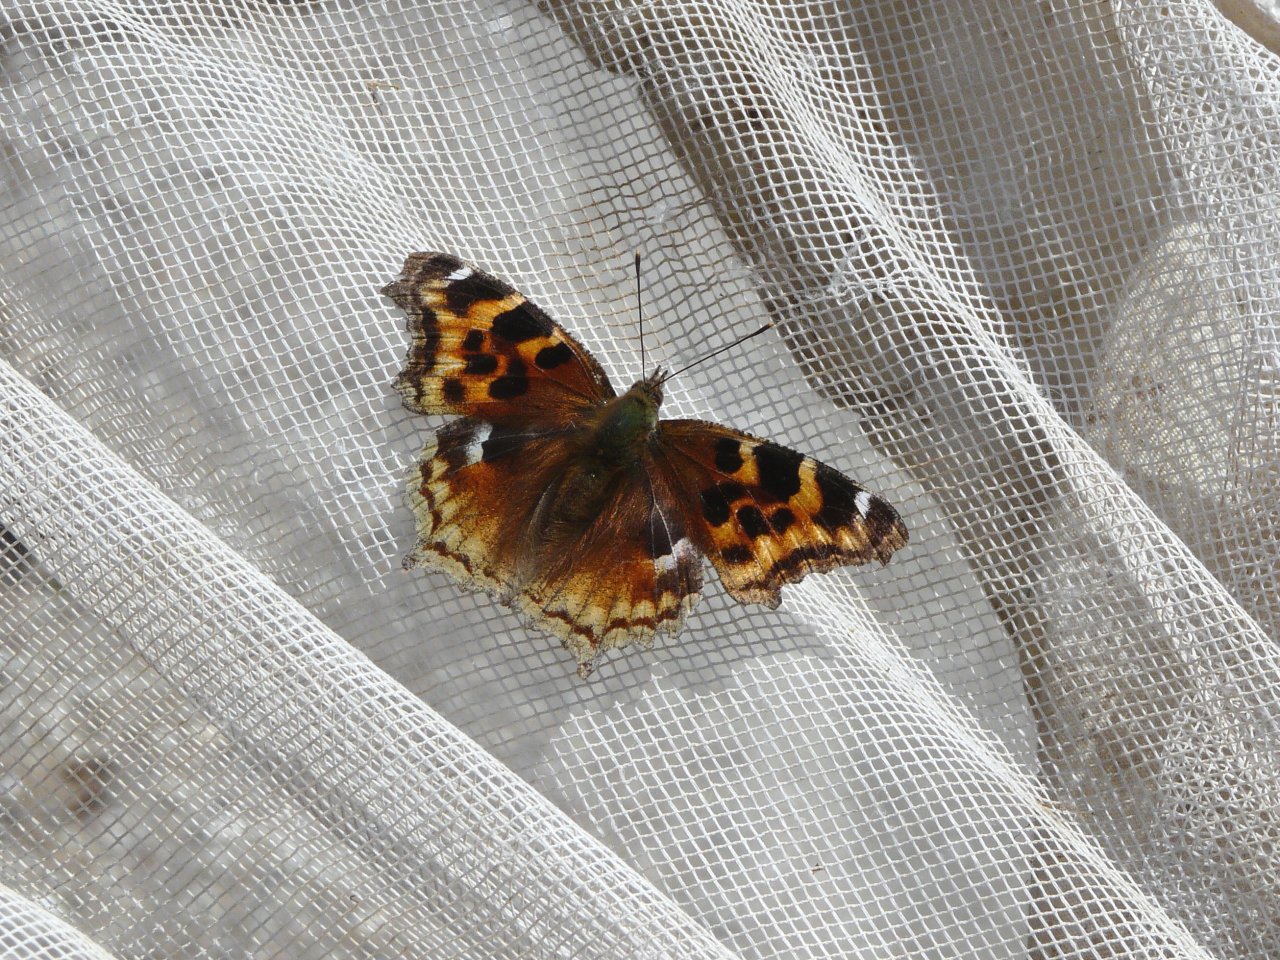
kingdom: Animalia
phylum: Arthropoda
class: Insecta
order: Lepidoptera
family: Nymphalidae
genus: Polygonia
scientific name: Polygonia vaualbum
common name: Compton Tortoiseshell
